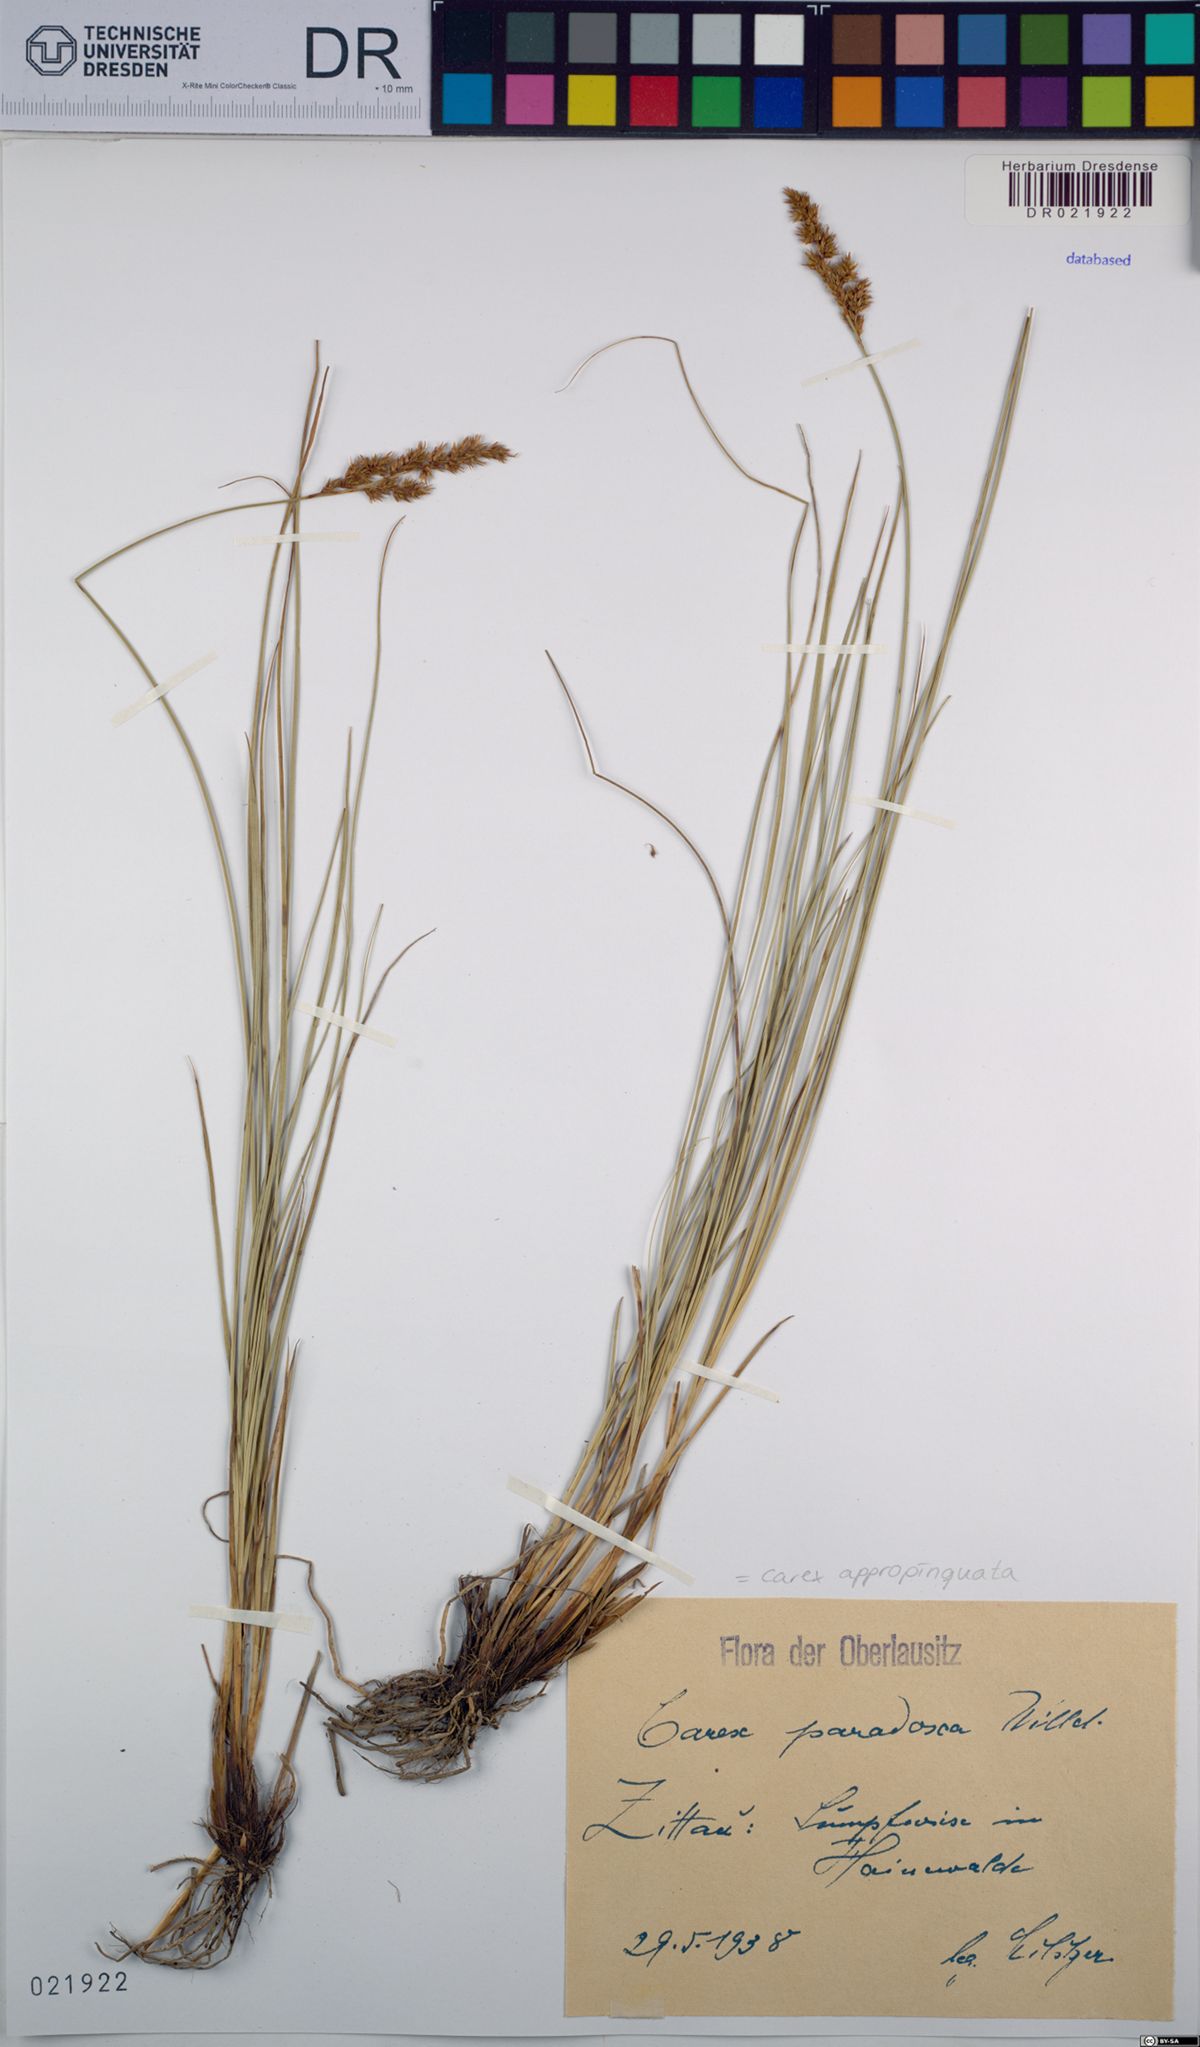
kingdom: Plantae
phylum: Tracheophyta
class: Liliopsida
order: Poales
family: Cyperaceae
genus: Carex
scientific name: Carex appropinquata
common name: Fibrous tussock-sedge
